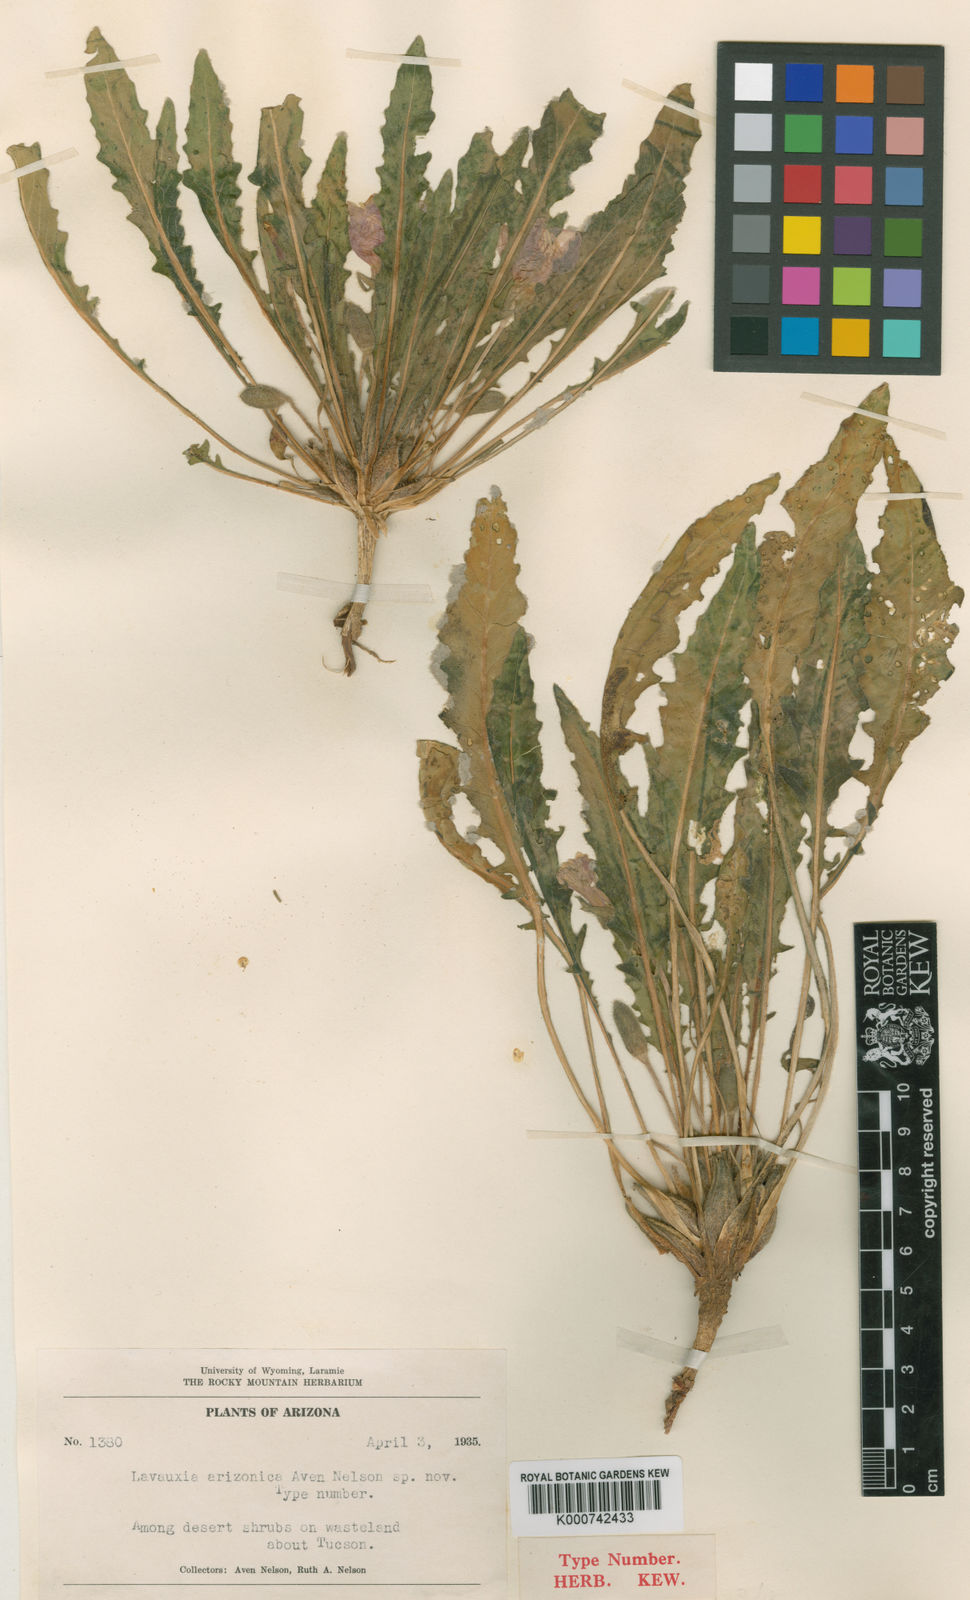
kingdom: Plantae
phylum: Tracheophyta
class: Magnoliopsida
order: Myrtales
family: Onagraceae
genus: Oenothera
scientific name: Oenothera arizonica
